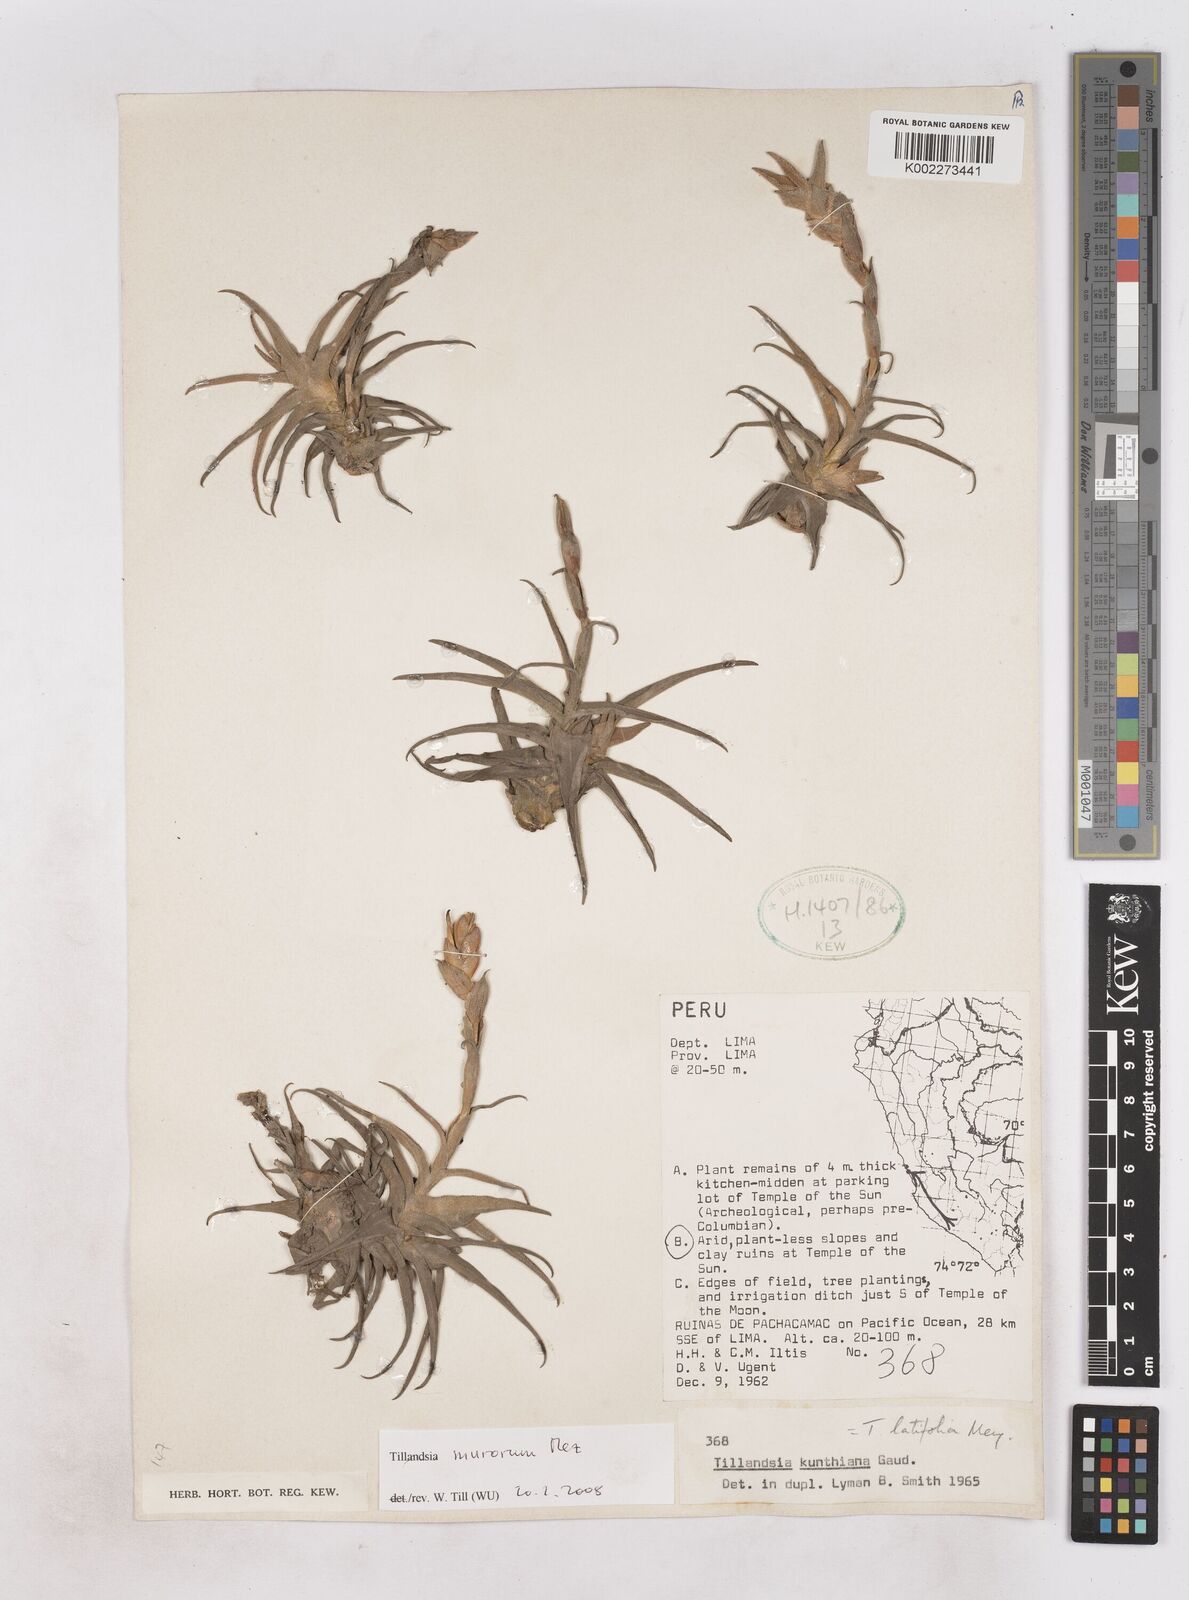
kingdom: Plantae
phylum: Tracheophyta
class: Liliopsida
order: Poales
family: Bromeliaceae
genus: Tillandsia
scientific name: Tillandsia latifolia
